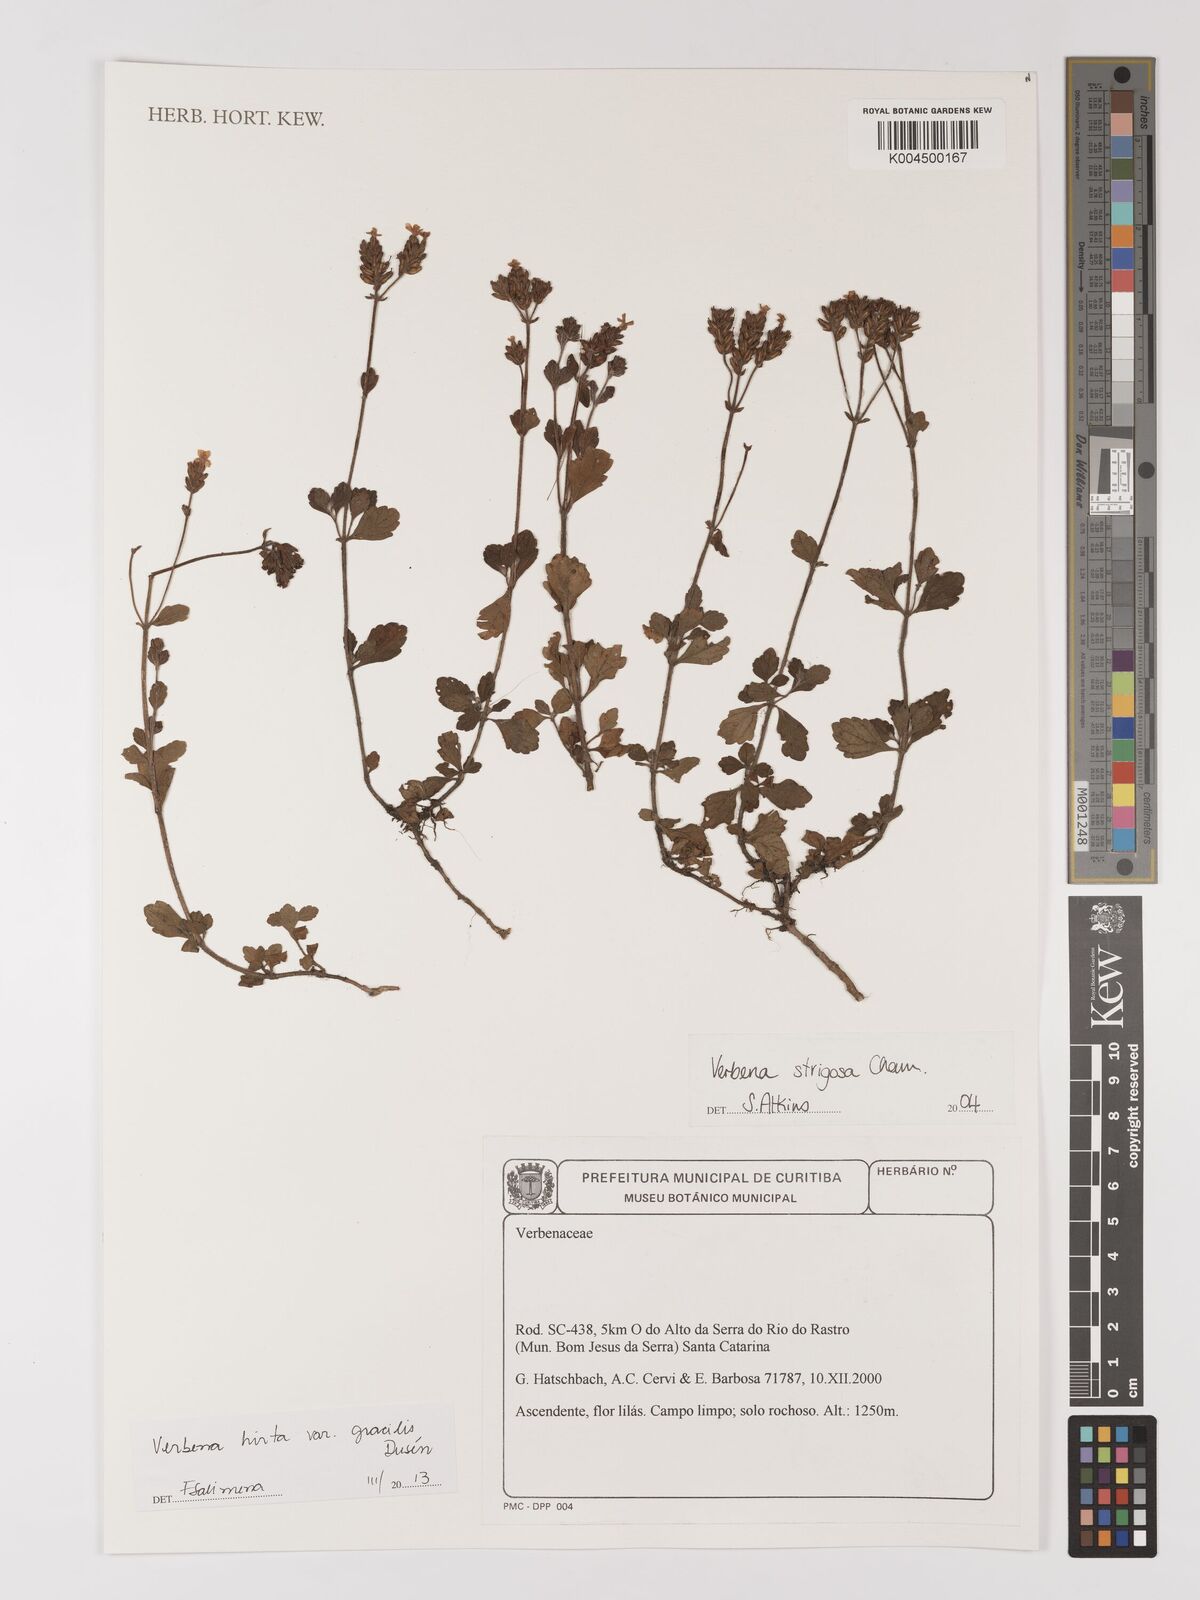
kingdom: Plantae
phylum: Tracheophyta
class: Magnoliopsida
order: Lamiales
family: Verbenaceae
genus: Verbena
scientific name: Verbena hirta
